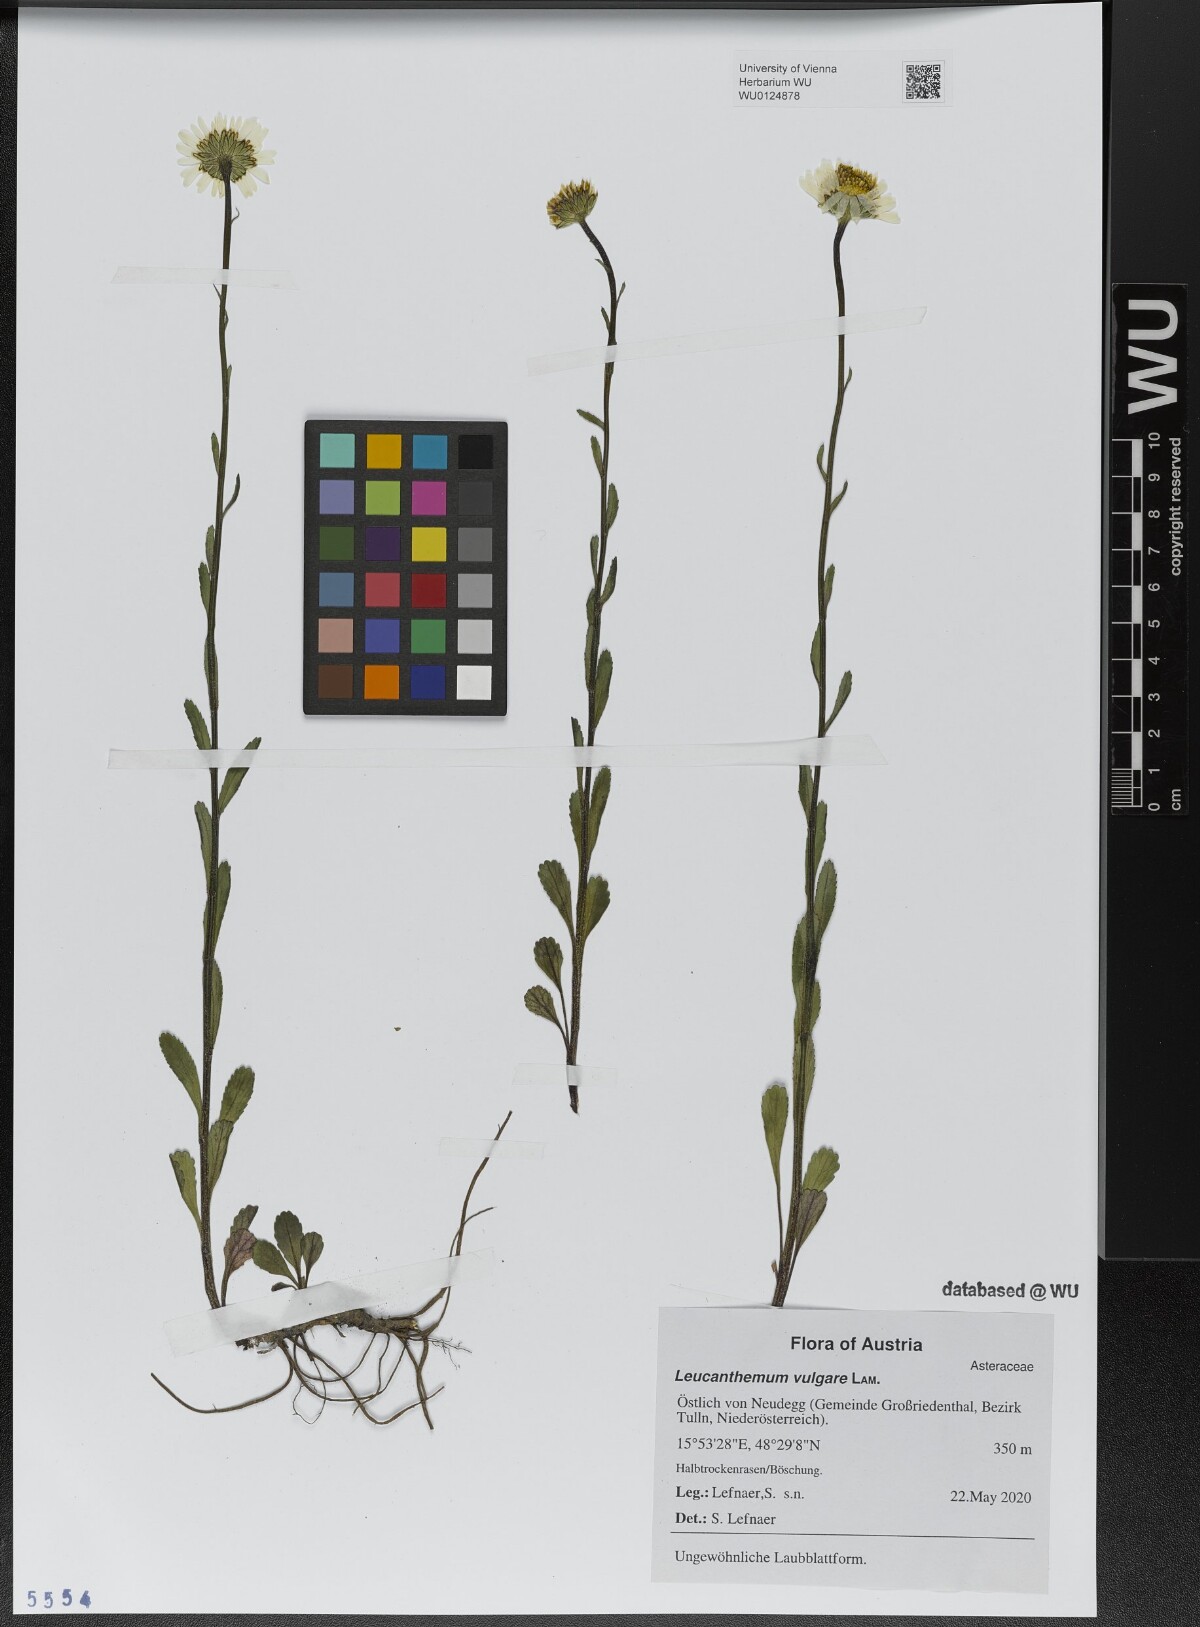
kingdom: Plantae
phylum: Tracheophyta
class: Magnoliopsida
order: Asterales
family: Asteraceae
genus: Leucanthemum
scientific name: Leucanthemum vulgare
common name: Oxeye daisy
